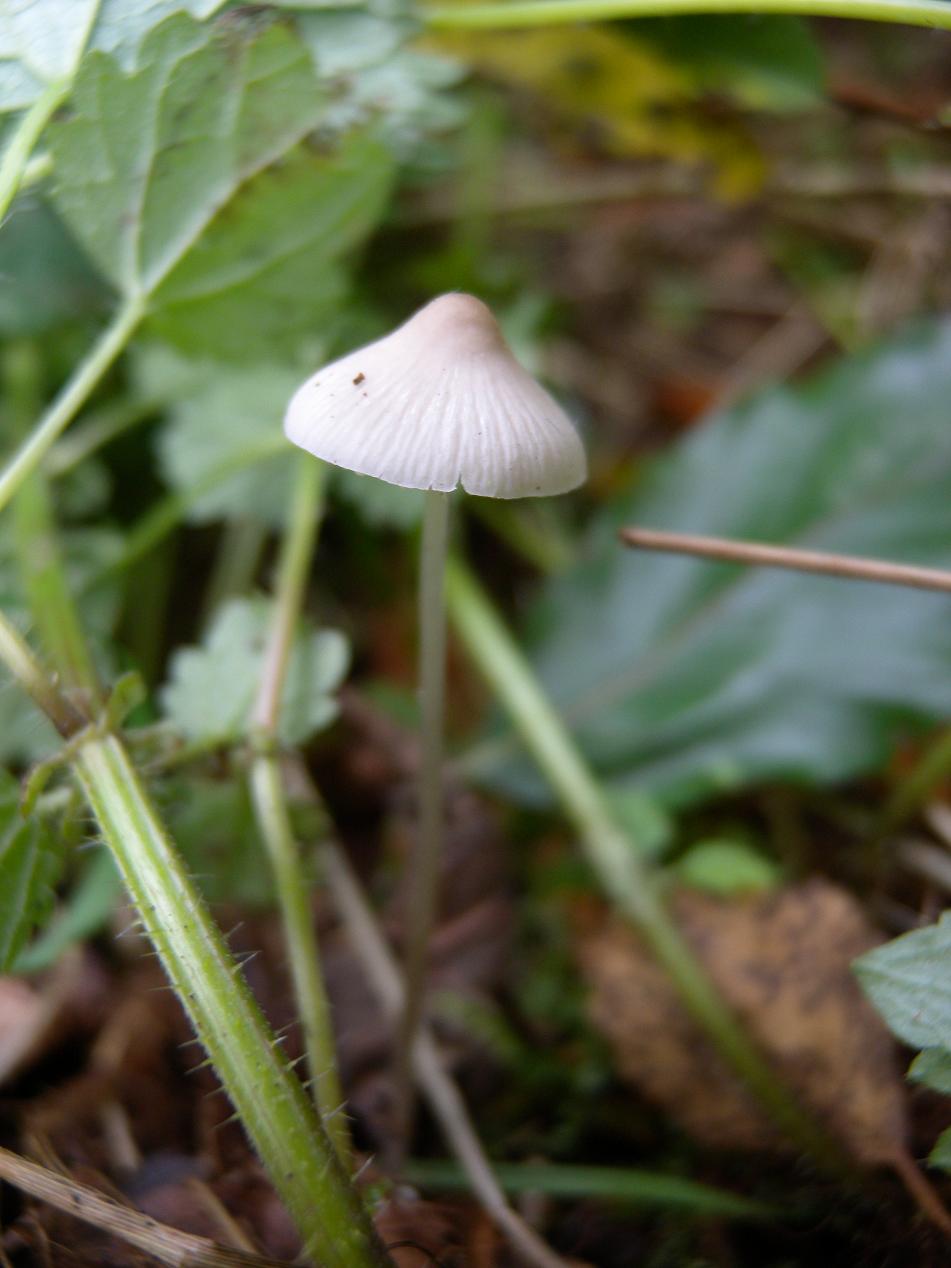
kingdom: Fungi
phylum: Basidiomycota
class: Agaricomycetes
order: Agaricales
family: Mycenaceae
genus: Mycena
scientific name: Mycena vitilis
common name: blankstokket huesvamp
